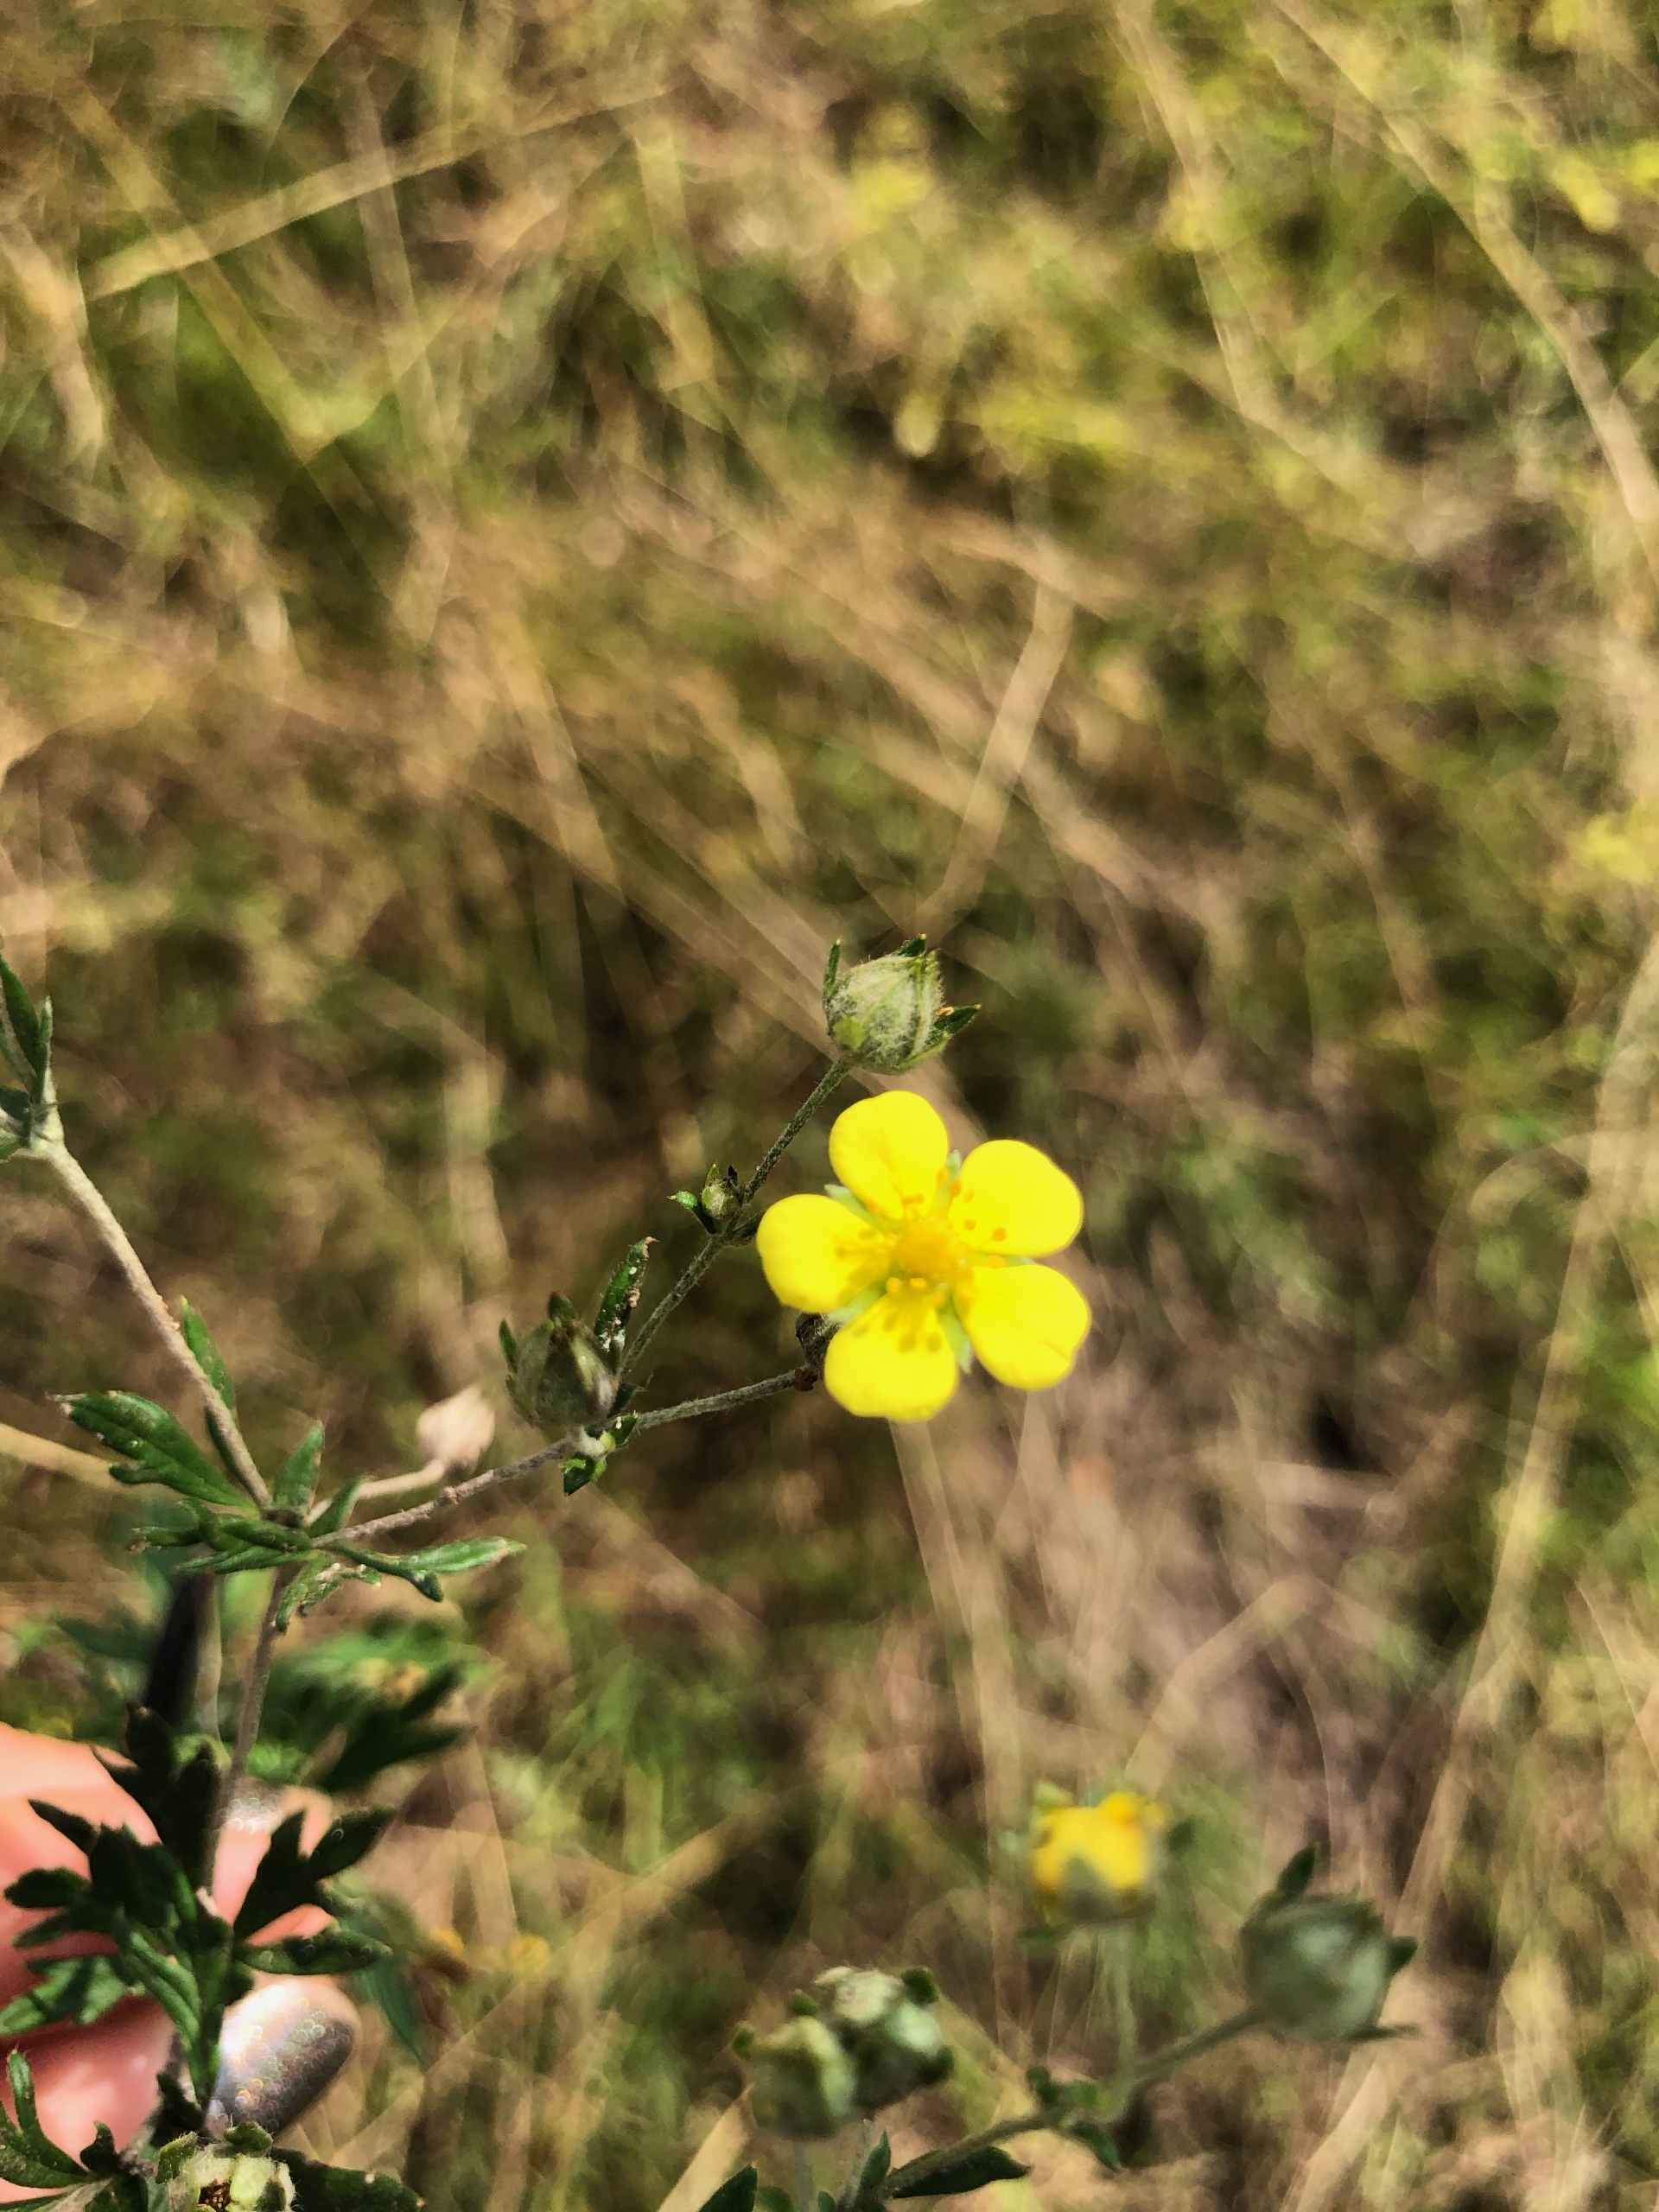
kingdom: Plantae
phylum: Tracheophyta
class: Magnoliopsida
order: Rosales
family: Rosaceae
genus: Potentilla
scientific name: Potentilla argentea
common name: Sølv-potentil
